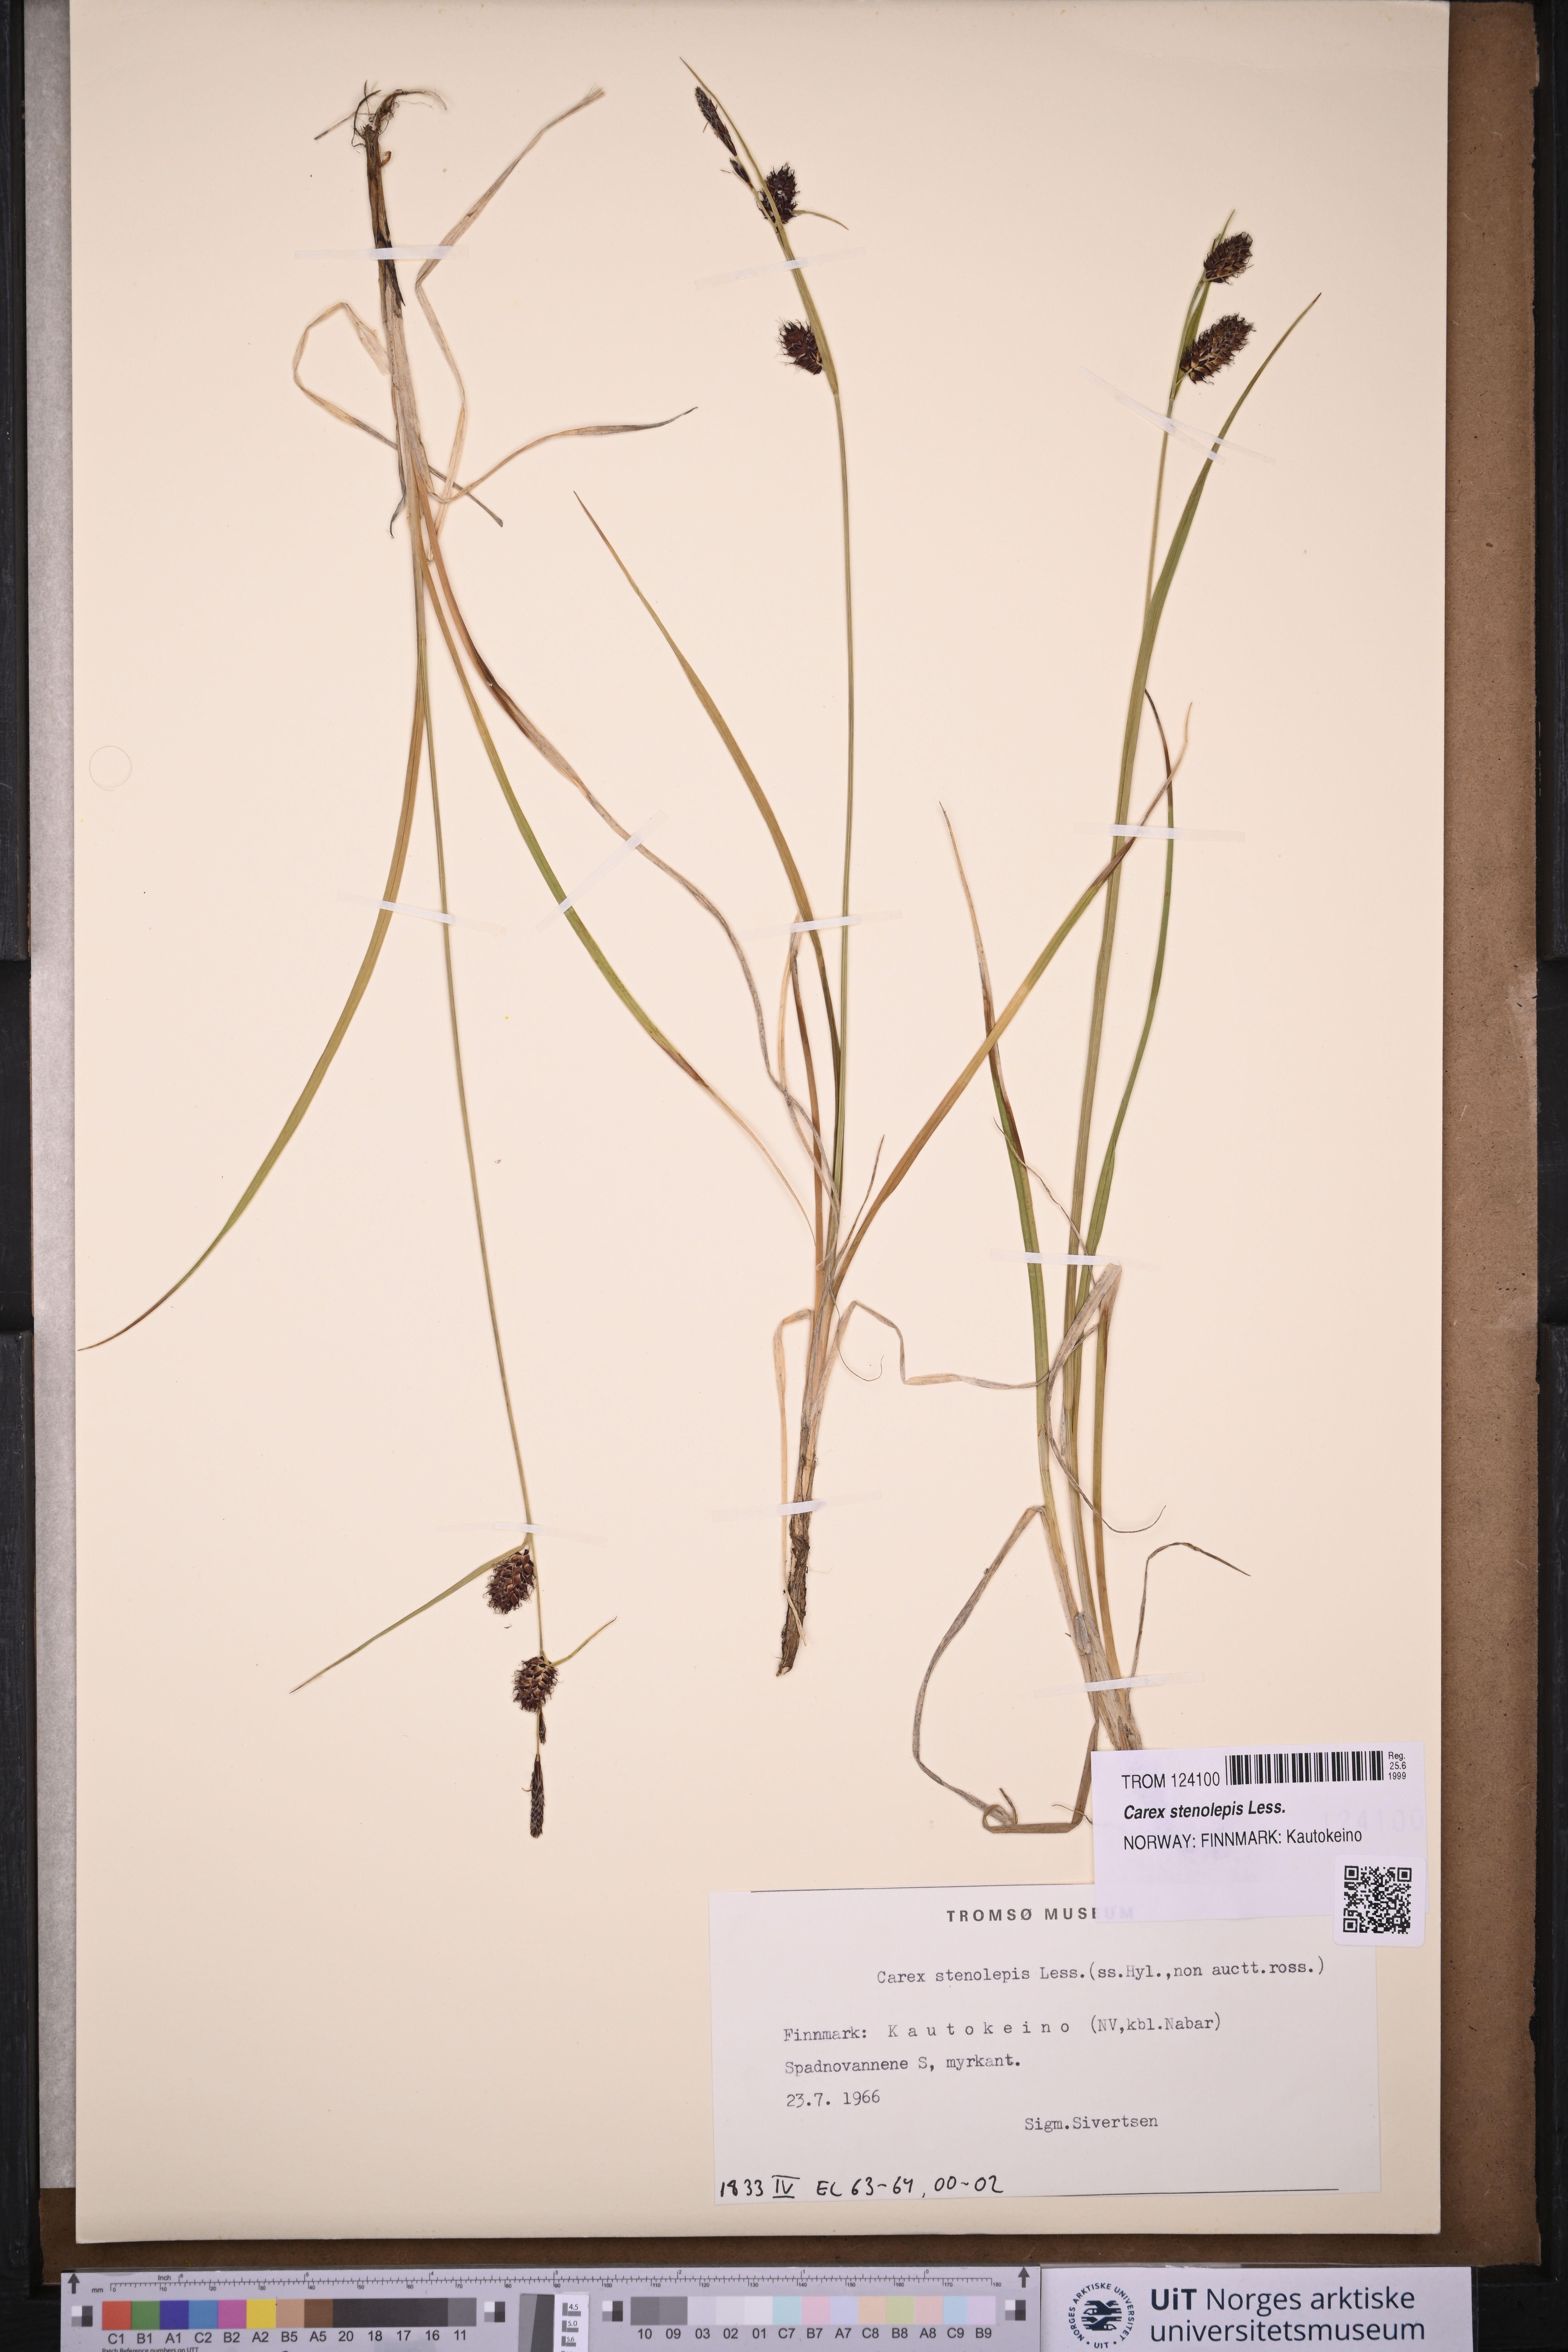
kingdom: Plantae
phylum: Tracheophyta
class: Liliopsida
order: Poales
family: Cyperaceae
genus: Carex
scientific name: Carex grahamii
